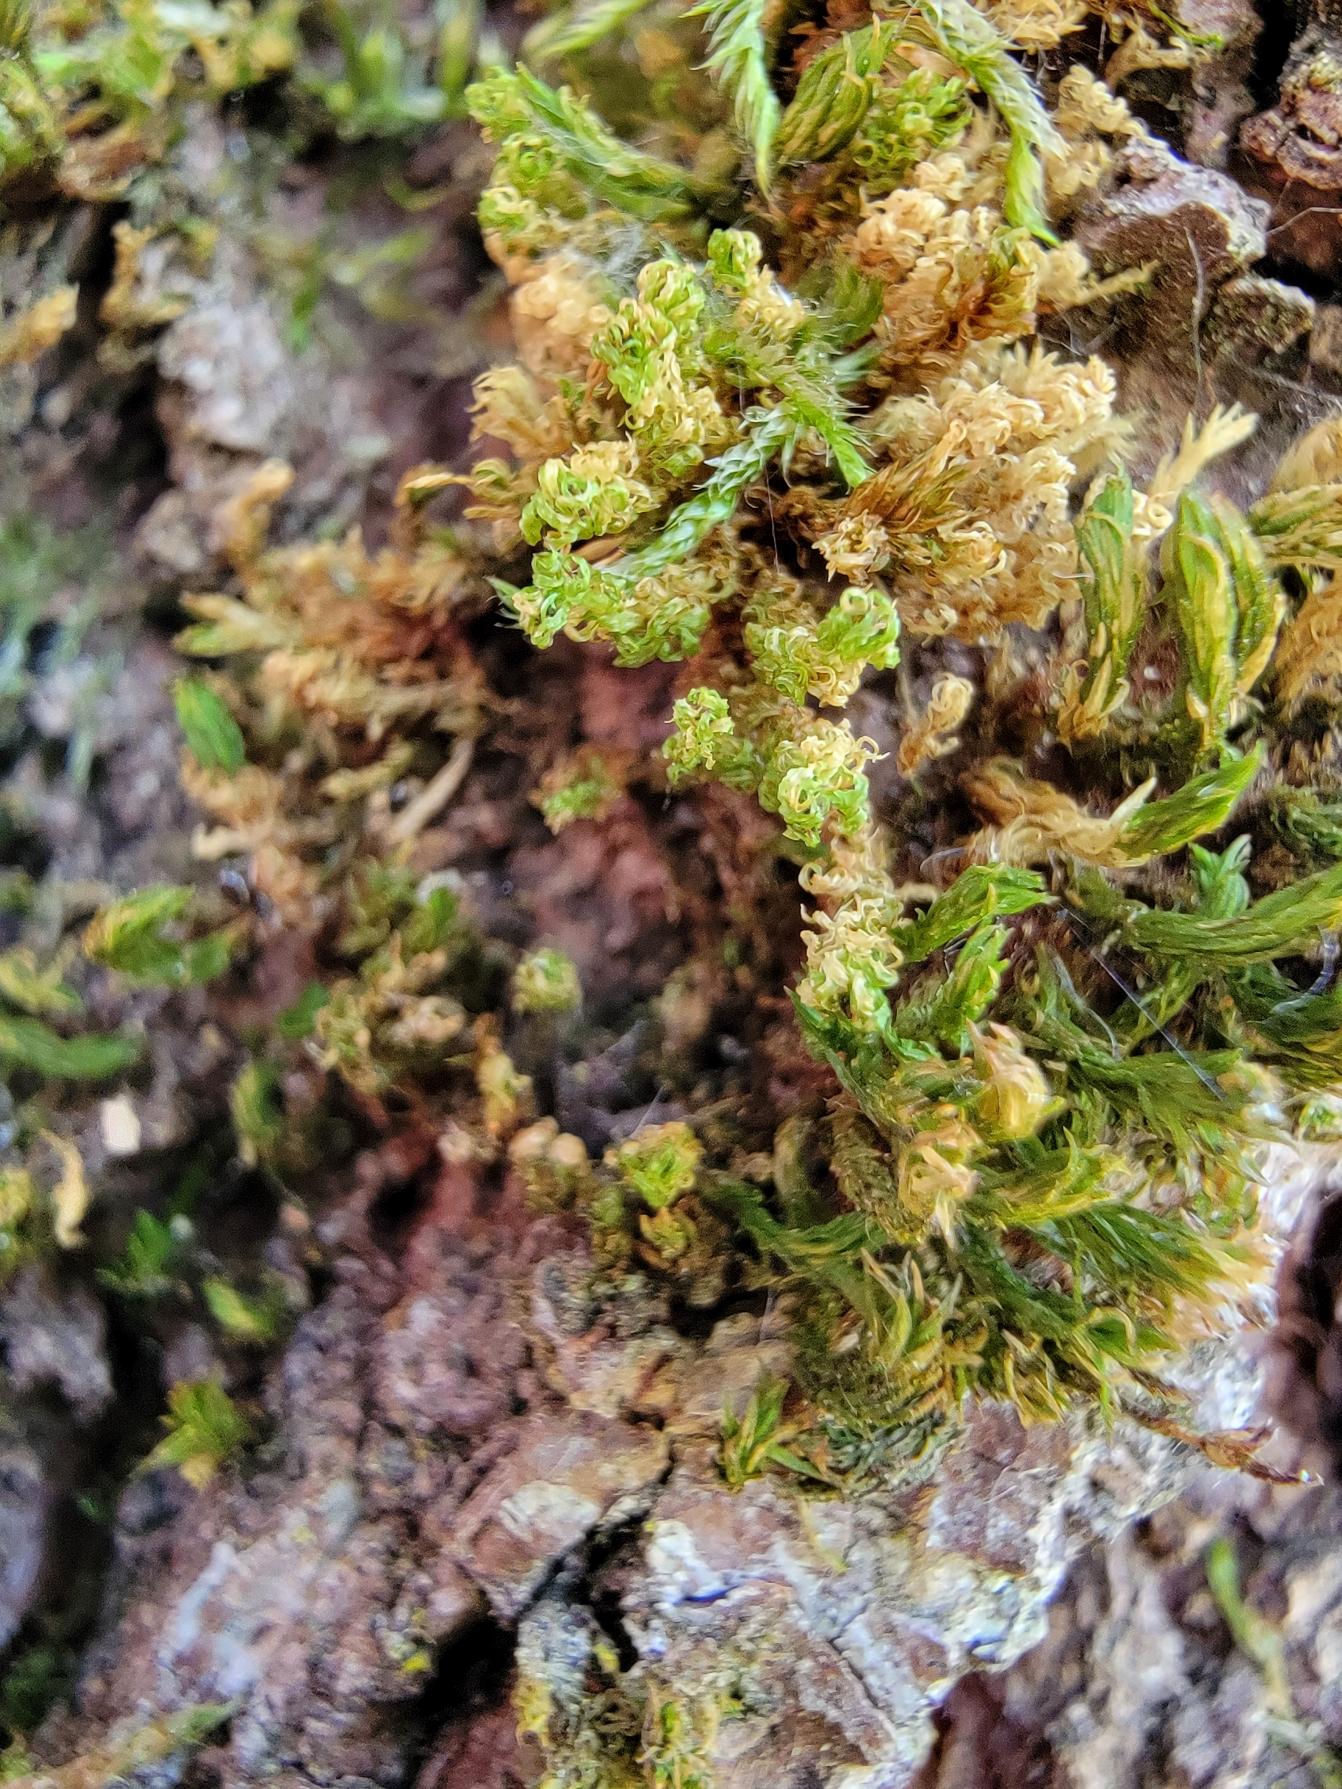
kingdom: Plantae
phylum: Bryophyta
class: Bryopsida
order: Orthotrichales
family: Orthotrichaceae
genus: Plenogemma
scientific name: Plenogemma phyllantha
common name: Stor låddenhætte
